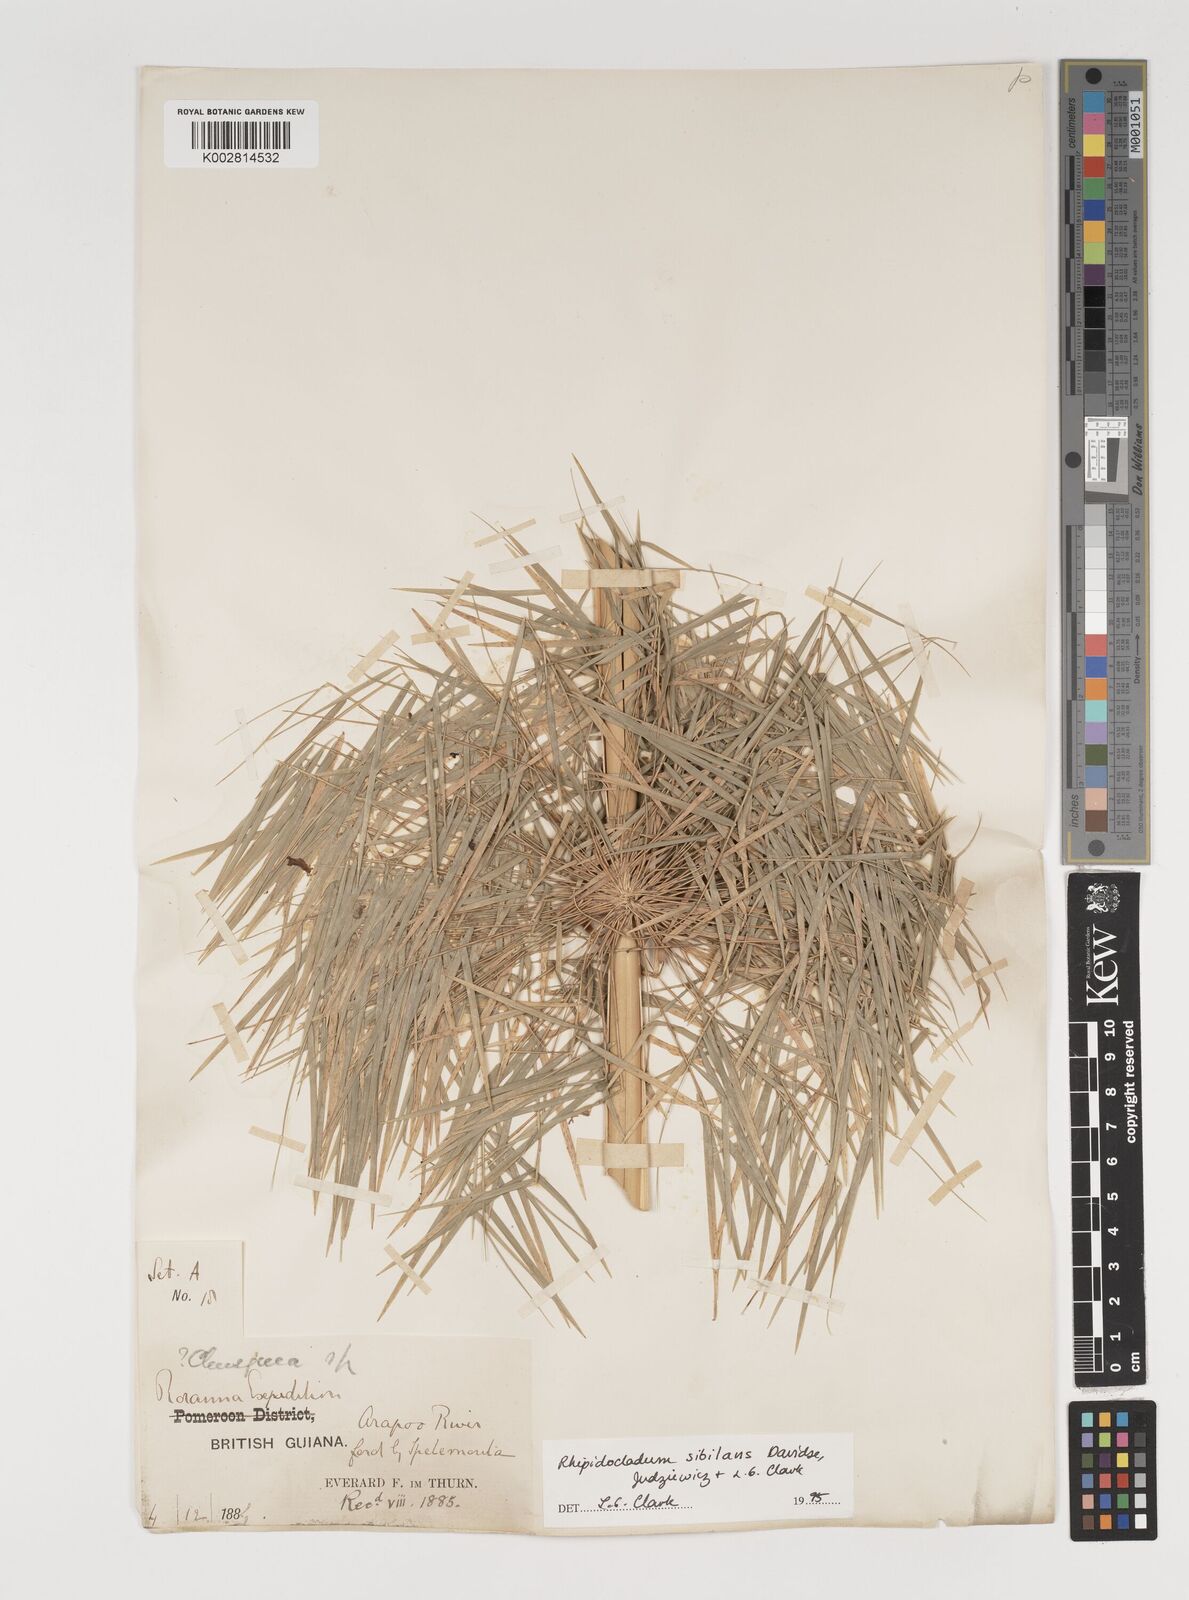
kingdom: Plantae
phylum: Tracheophyta
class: Liliopsida
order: Poales
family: Poaceae
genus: Rhipidocladum
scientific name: Rhipidocladum sibilans
